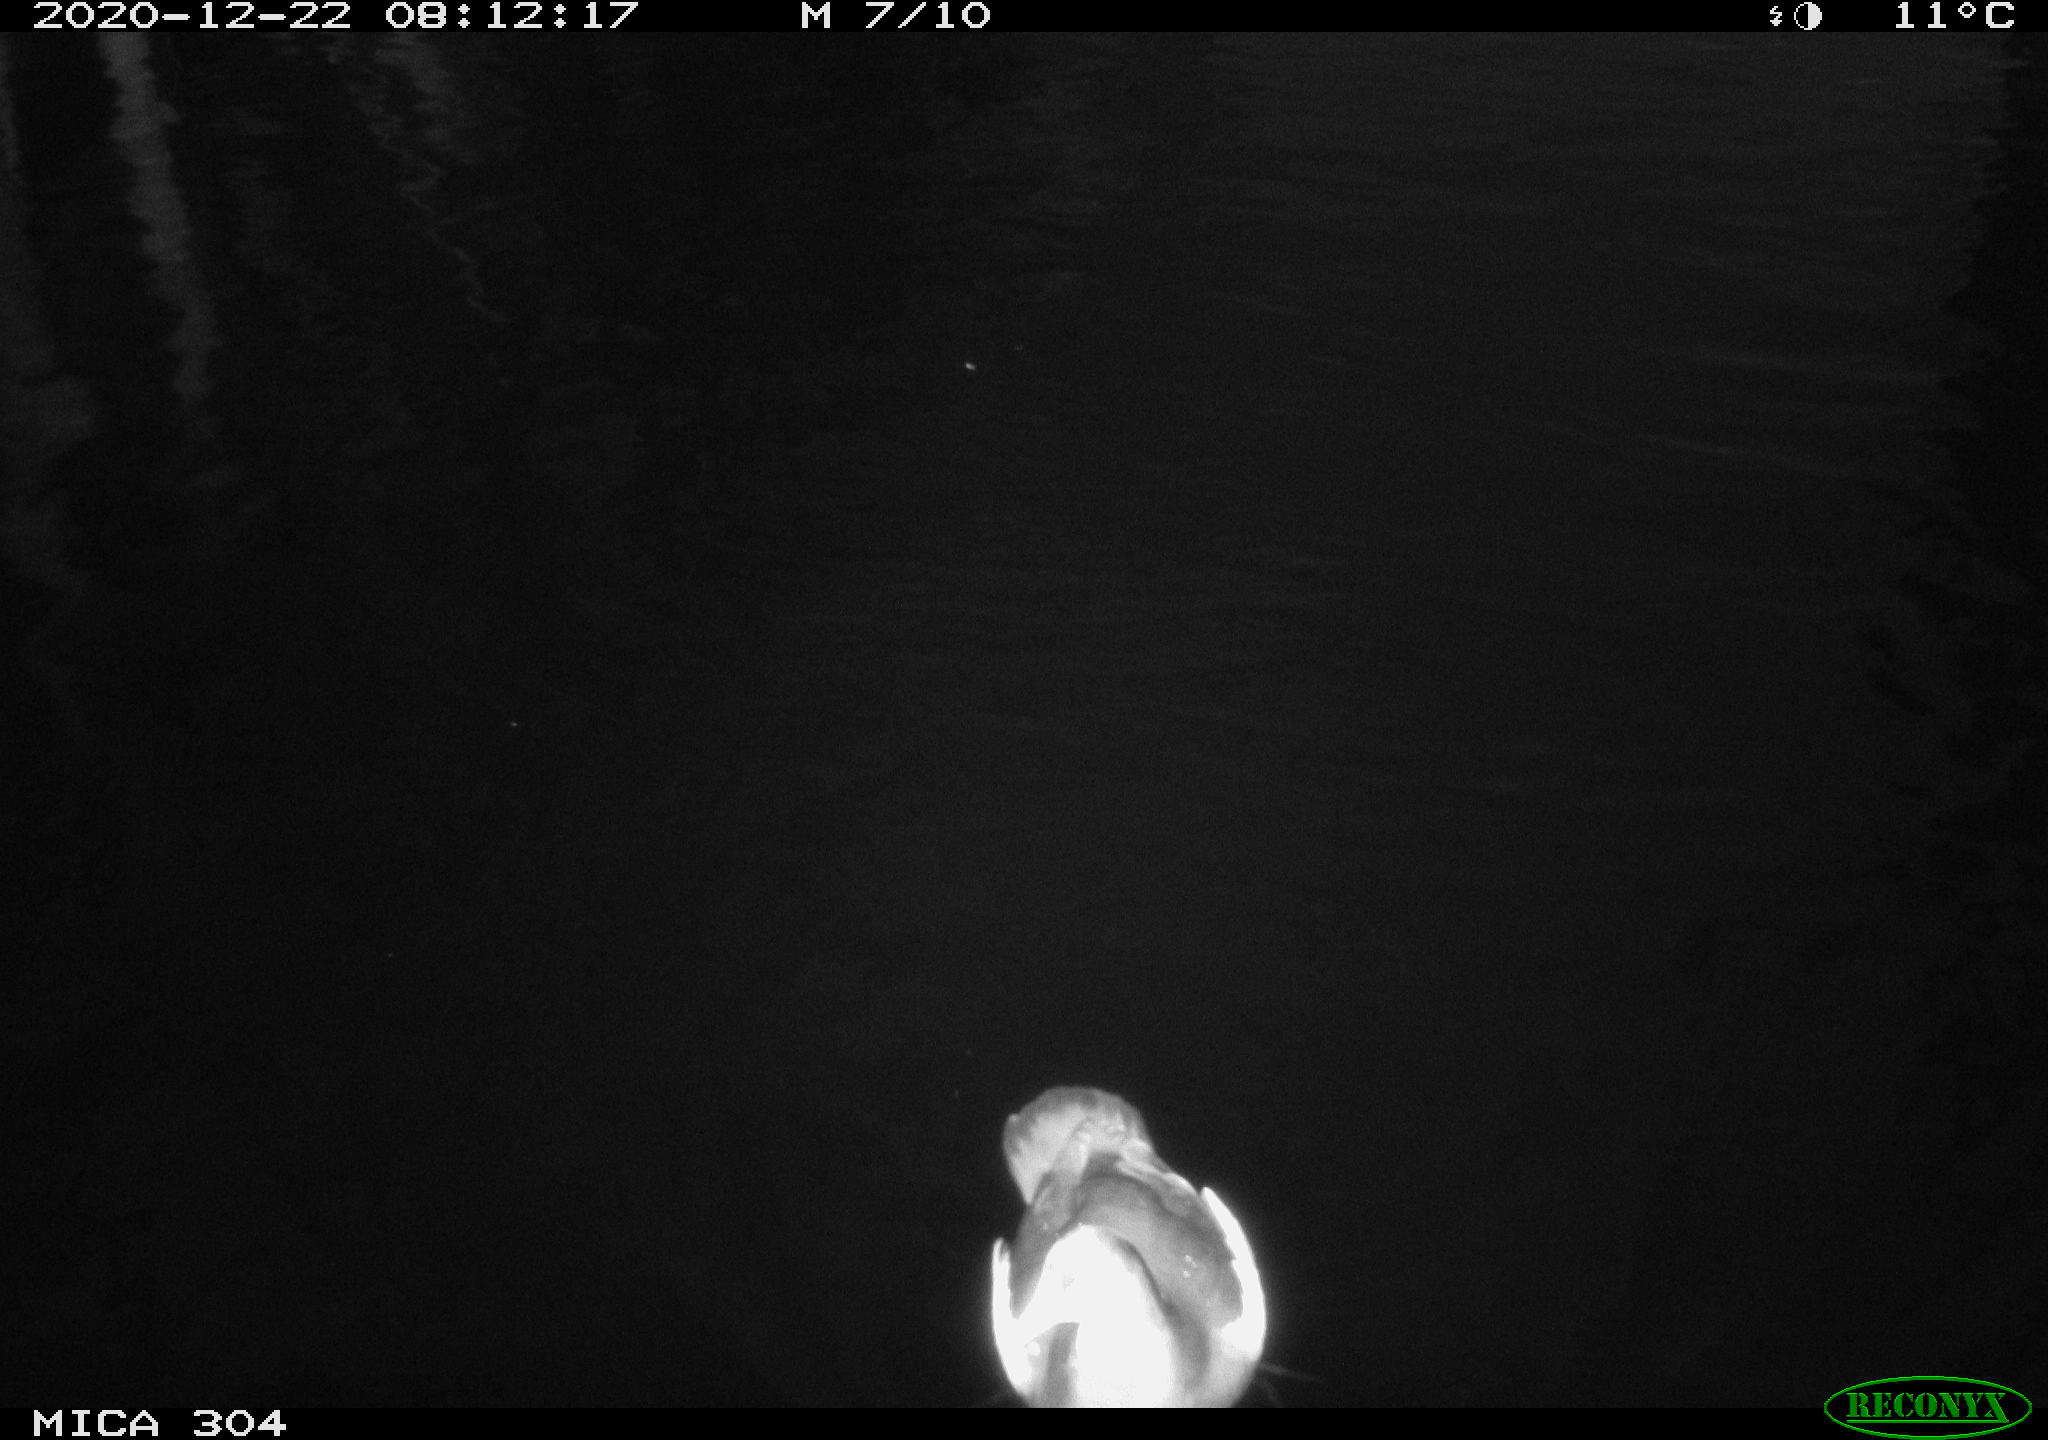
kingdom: Animalia
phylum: Chordata
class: Aves
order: Anseriformes
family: Anatidae
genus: Anas
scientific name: Anas platyrhynchos
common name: Mallard
